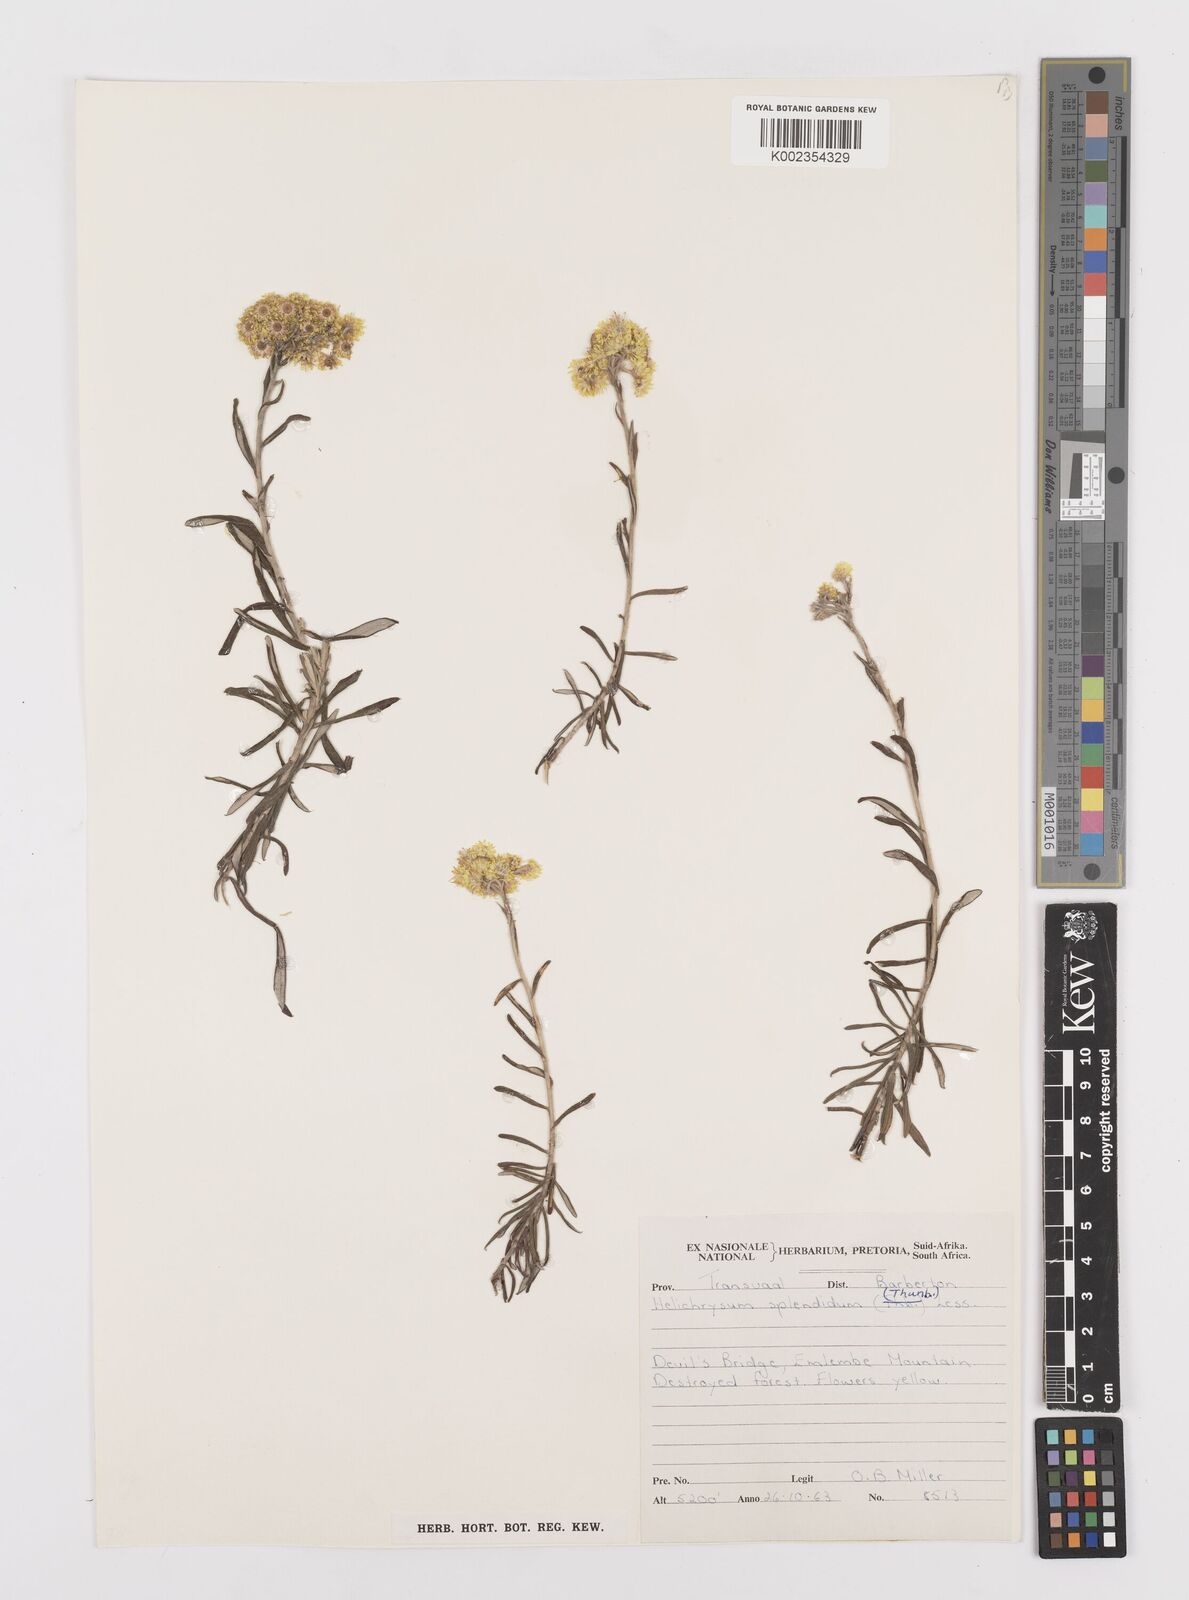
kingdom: Plantae
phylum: Tracheophyta
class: Magnoliopsida
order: Asterales
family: Asteraceae
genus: Helichrysum
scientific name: Helichrysum splendidum
